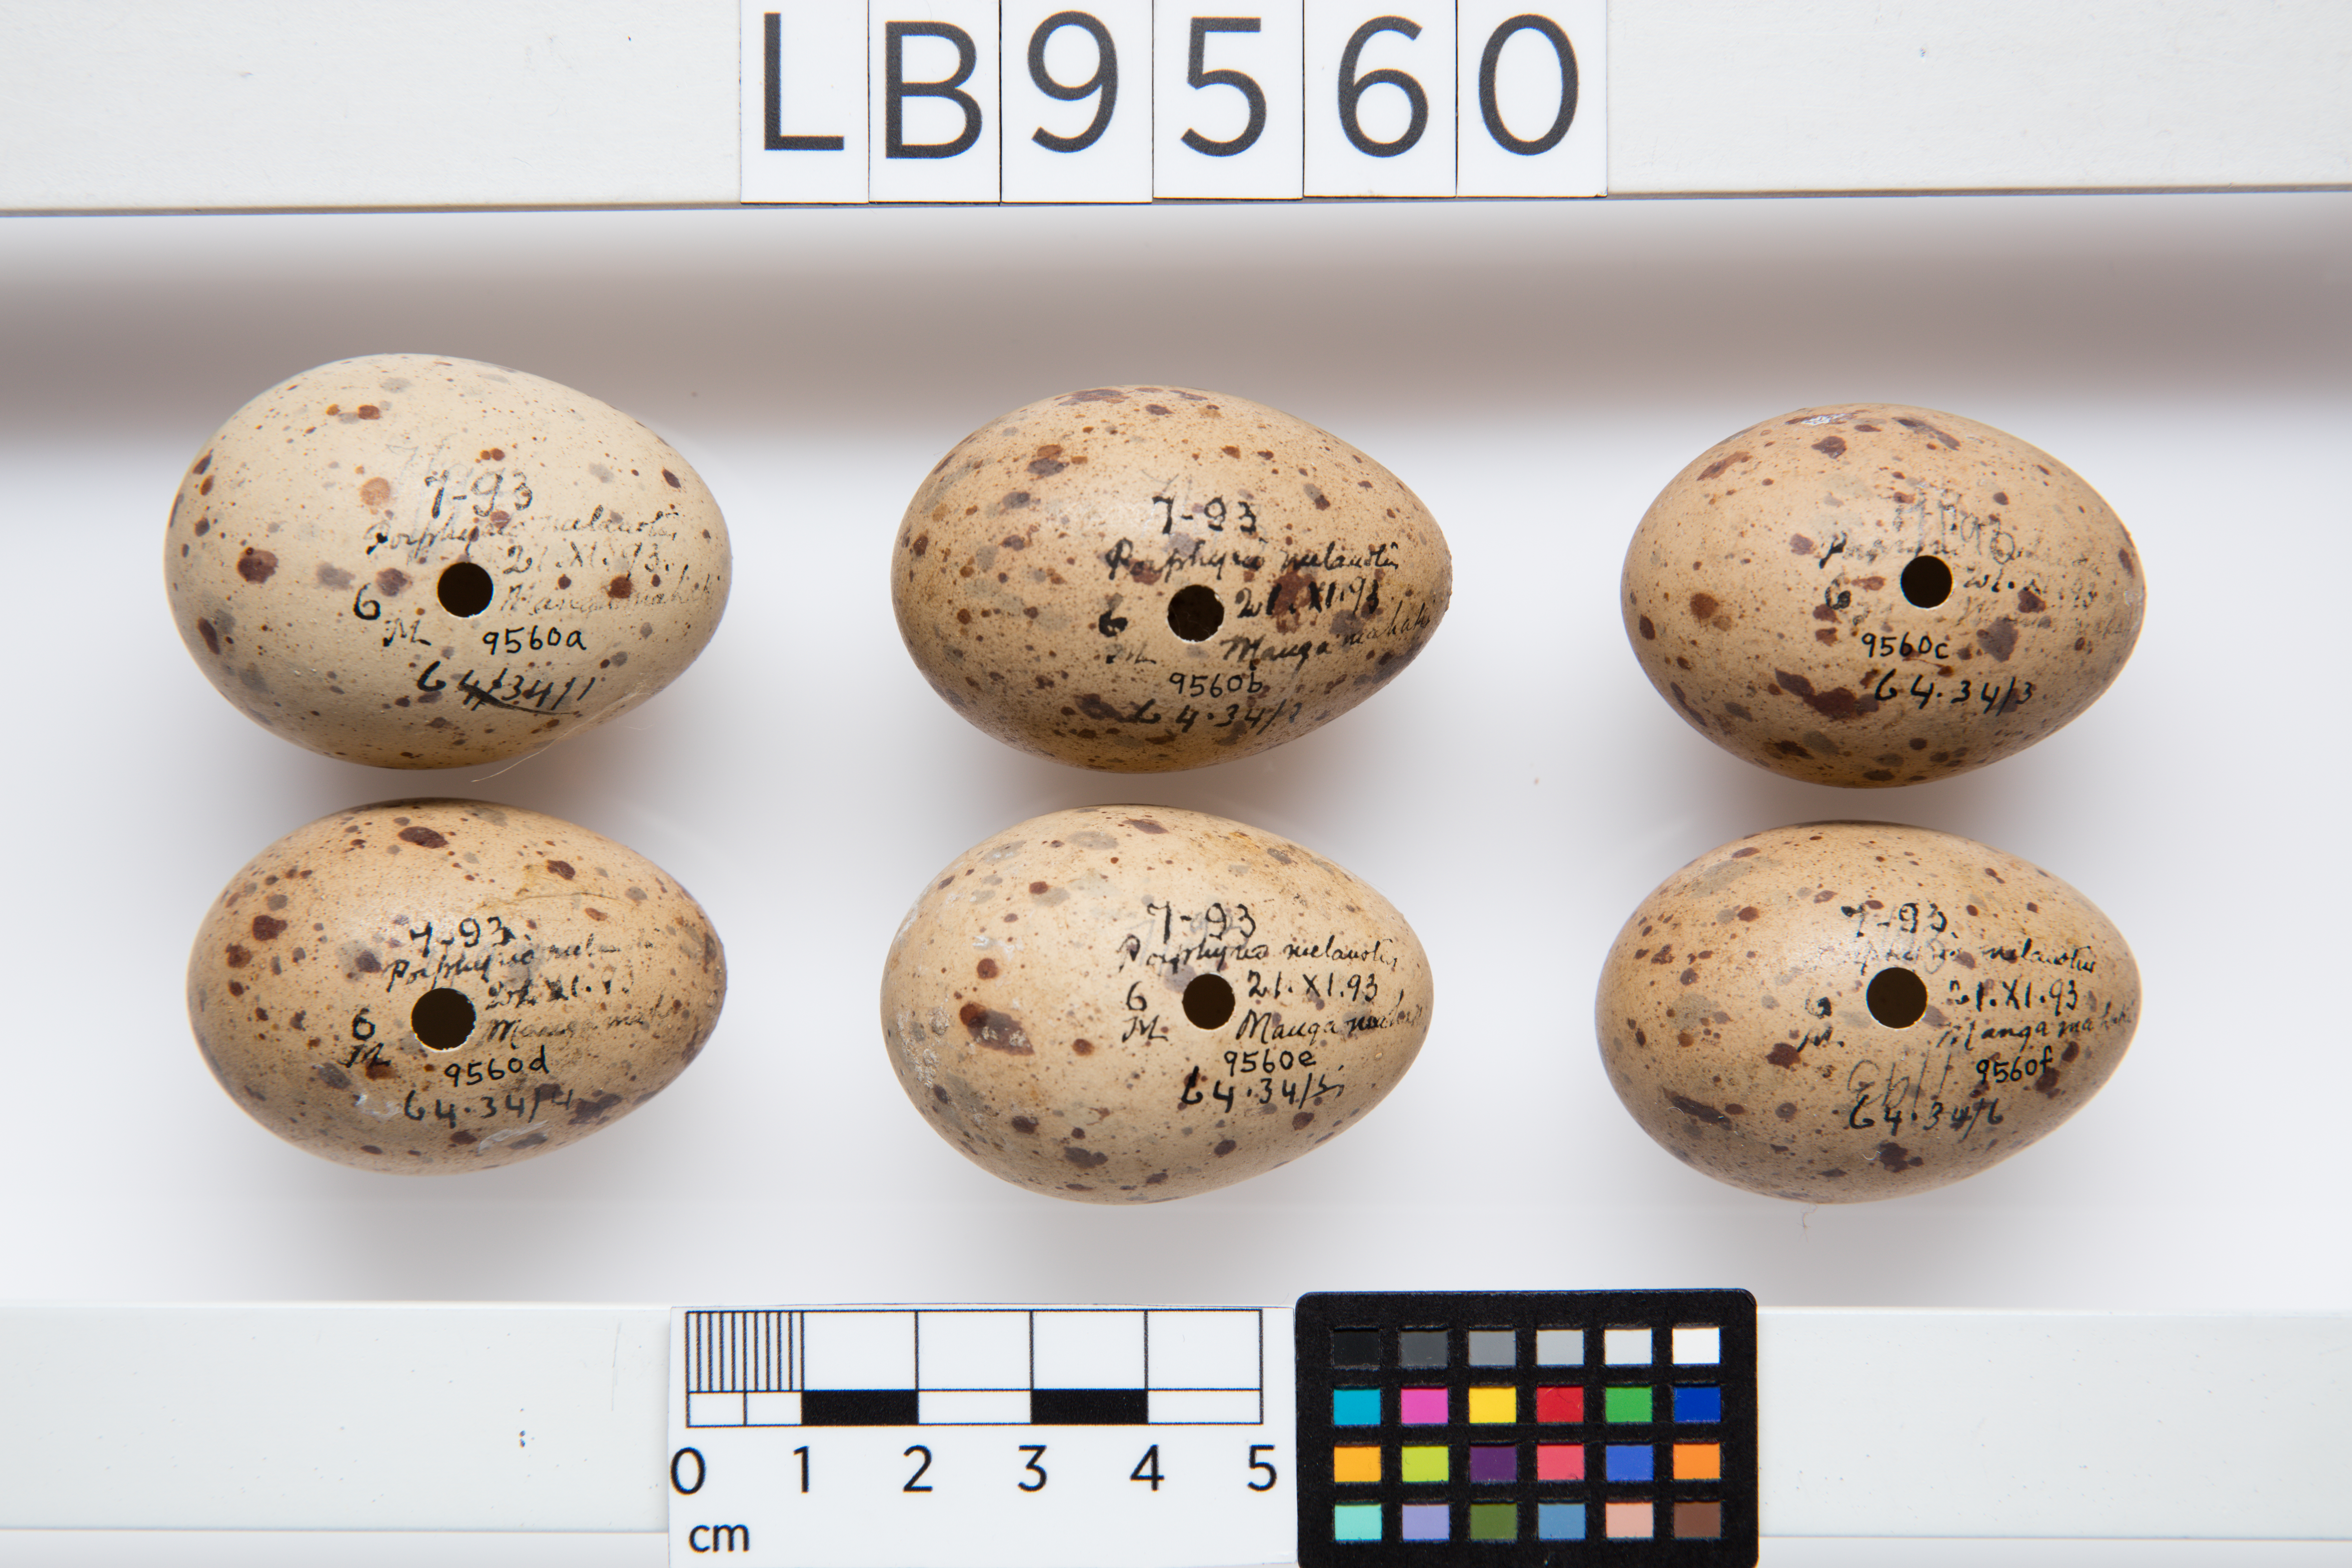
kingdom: Animalia
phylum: Chordata
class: Aves
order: Gruiformes
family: Rallidae
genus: Porphyrio
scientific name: Porphyrio melanotus
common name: Australasian swamphen
